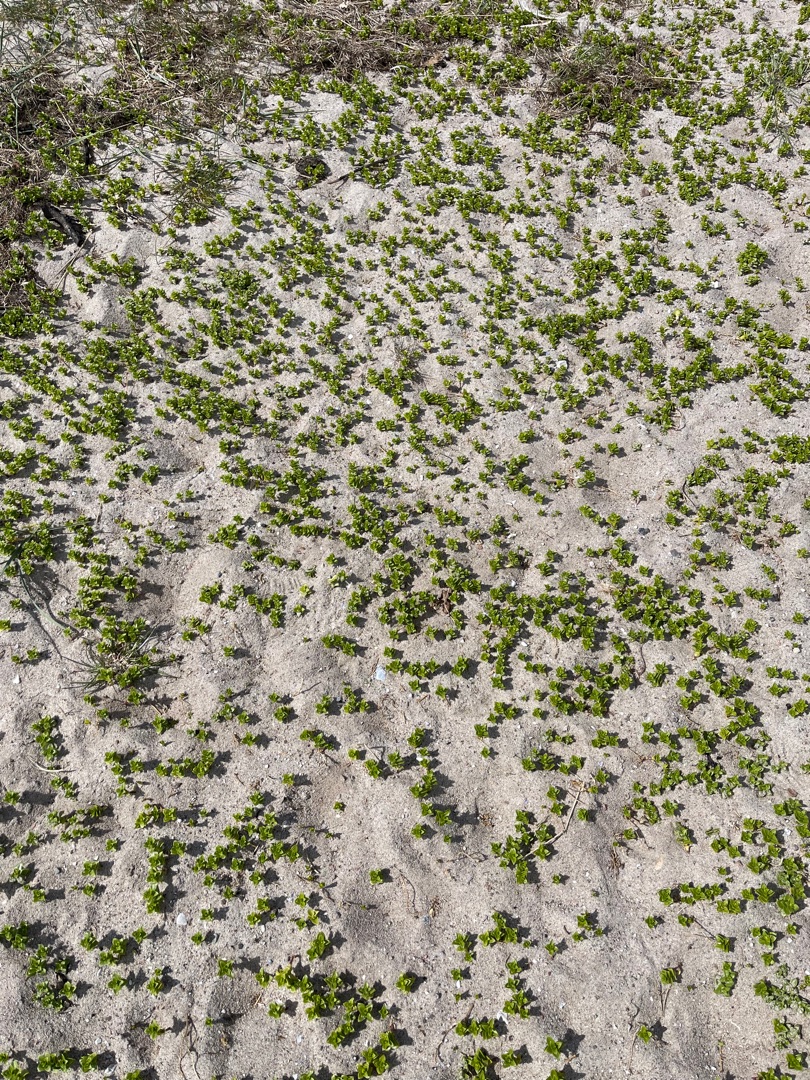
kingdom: Plantae
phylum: Tracheophyta
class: Magnoliopsida
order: Caryophyllales
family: Caryophyllaceae
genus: Honckenya
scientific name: Honckenya peploides
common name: Strandarve
